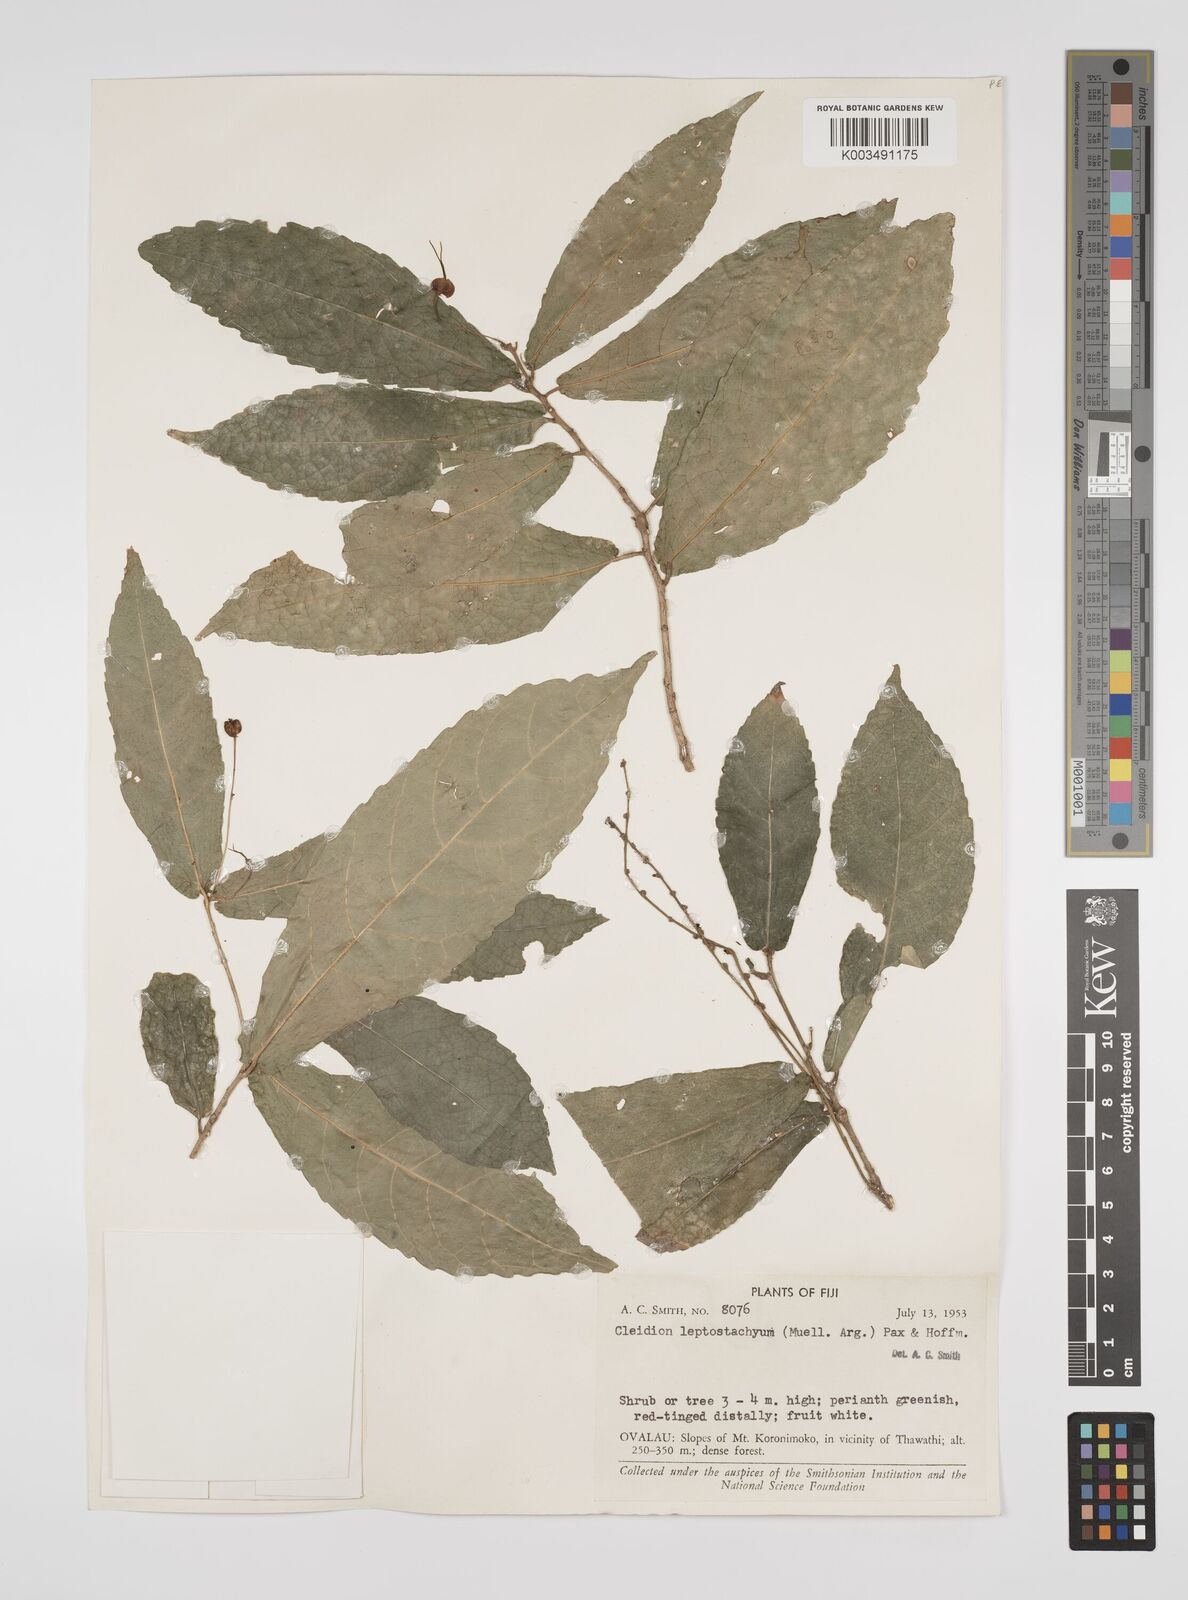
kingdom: Plantae
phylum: Tracheophyta
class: Magnoliopsida
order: Malpighiales
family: Euphorbiaceae
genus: Cleidion
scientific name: Cleidion leptostachyum
